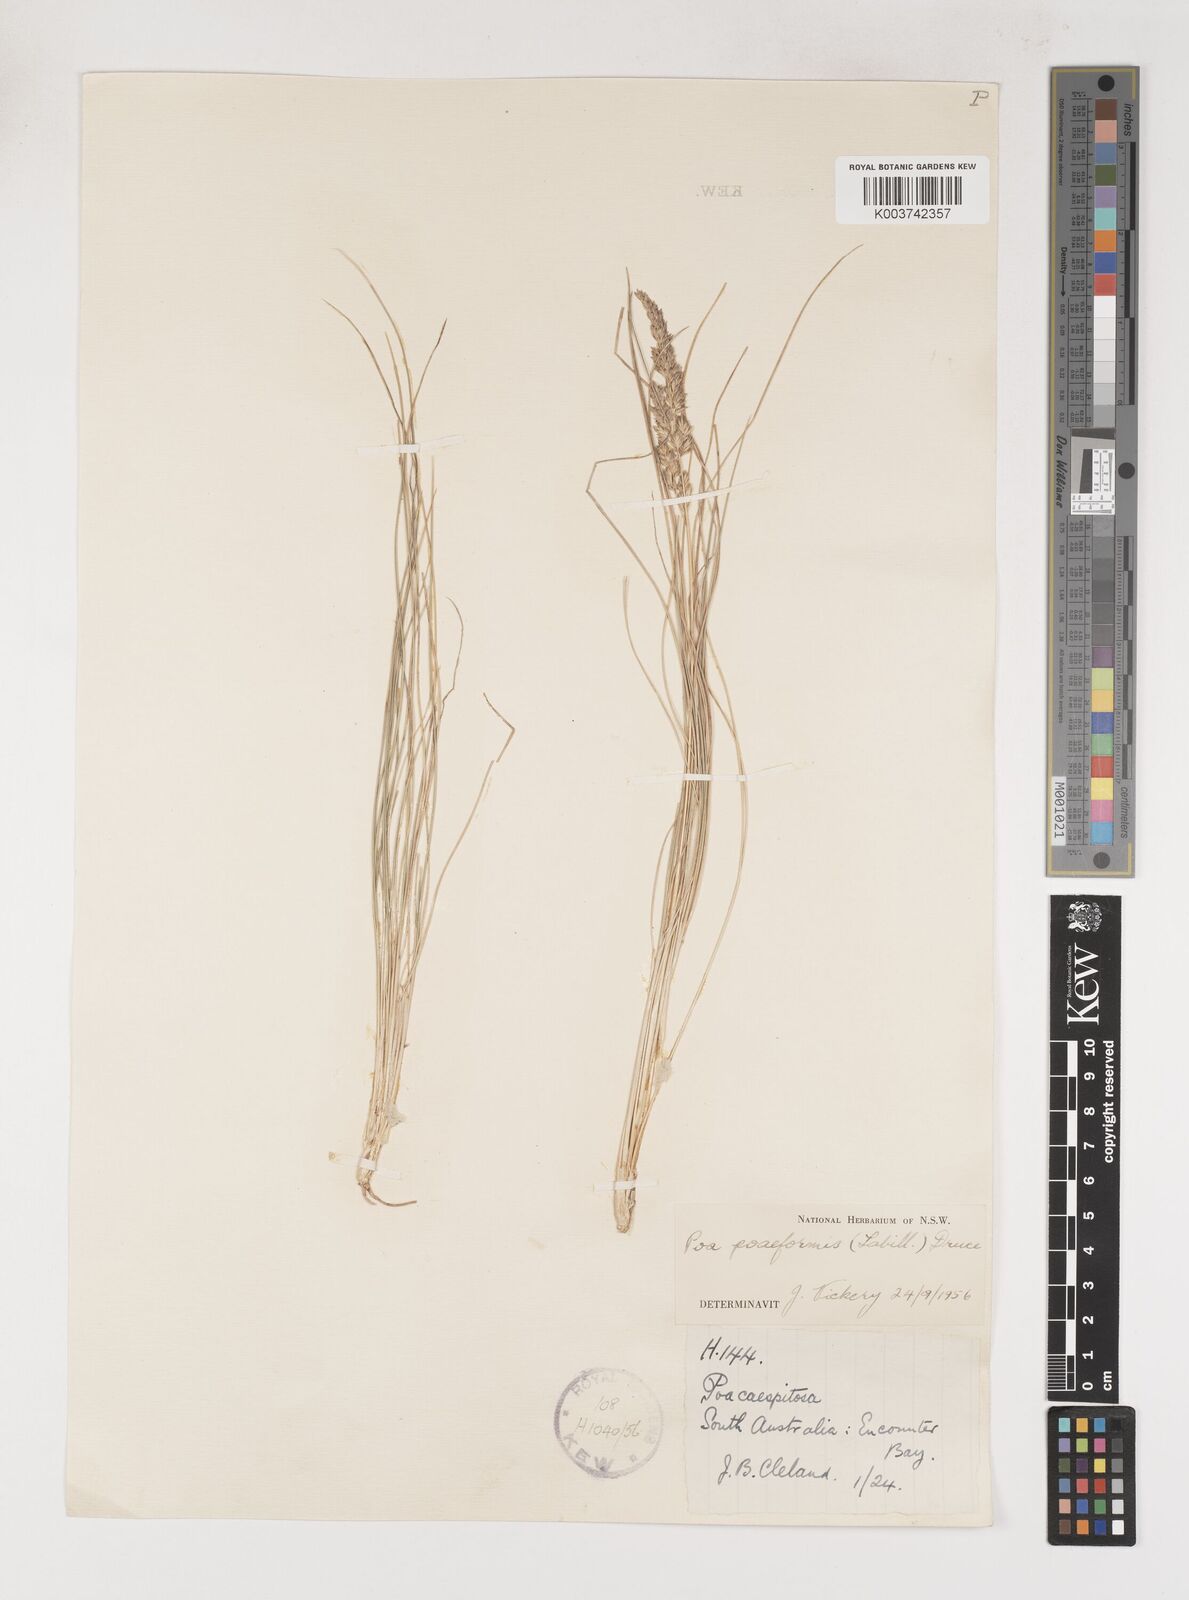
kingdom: Plantae
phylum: Tracheophyta
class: Liliopsida
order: Poales
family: Poaceae
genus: Poa
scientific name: Poa poiformis
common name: Tussock poa
